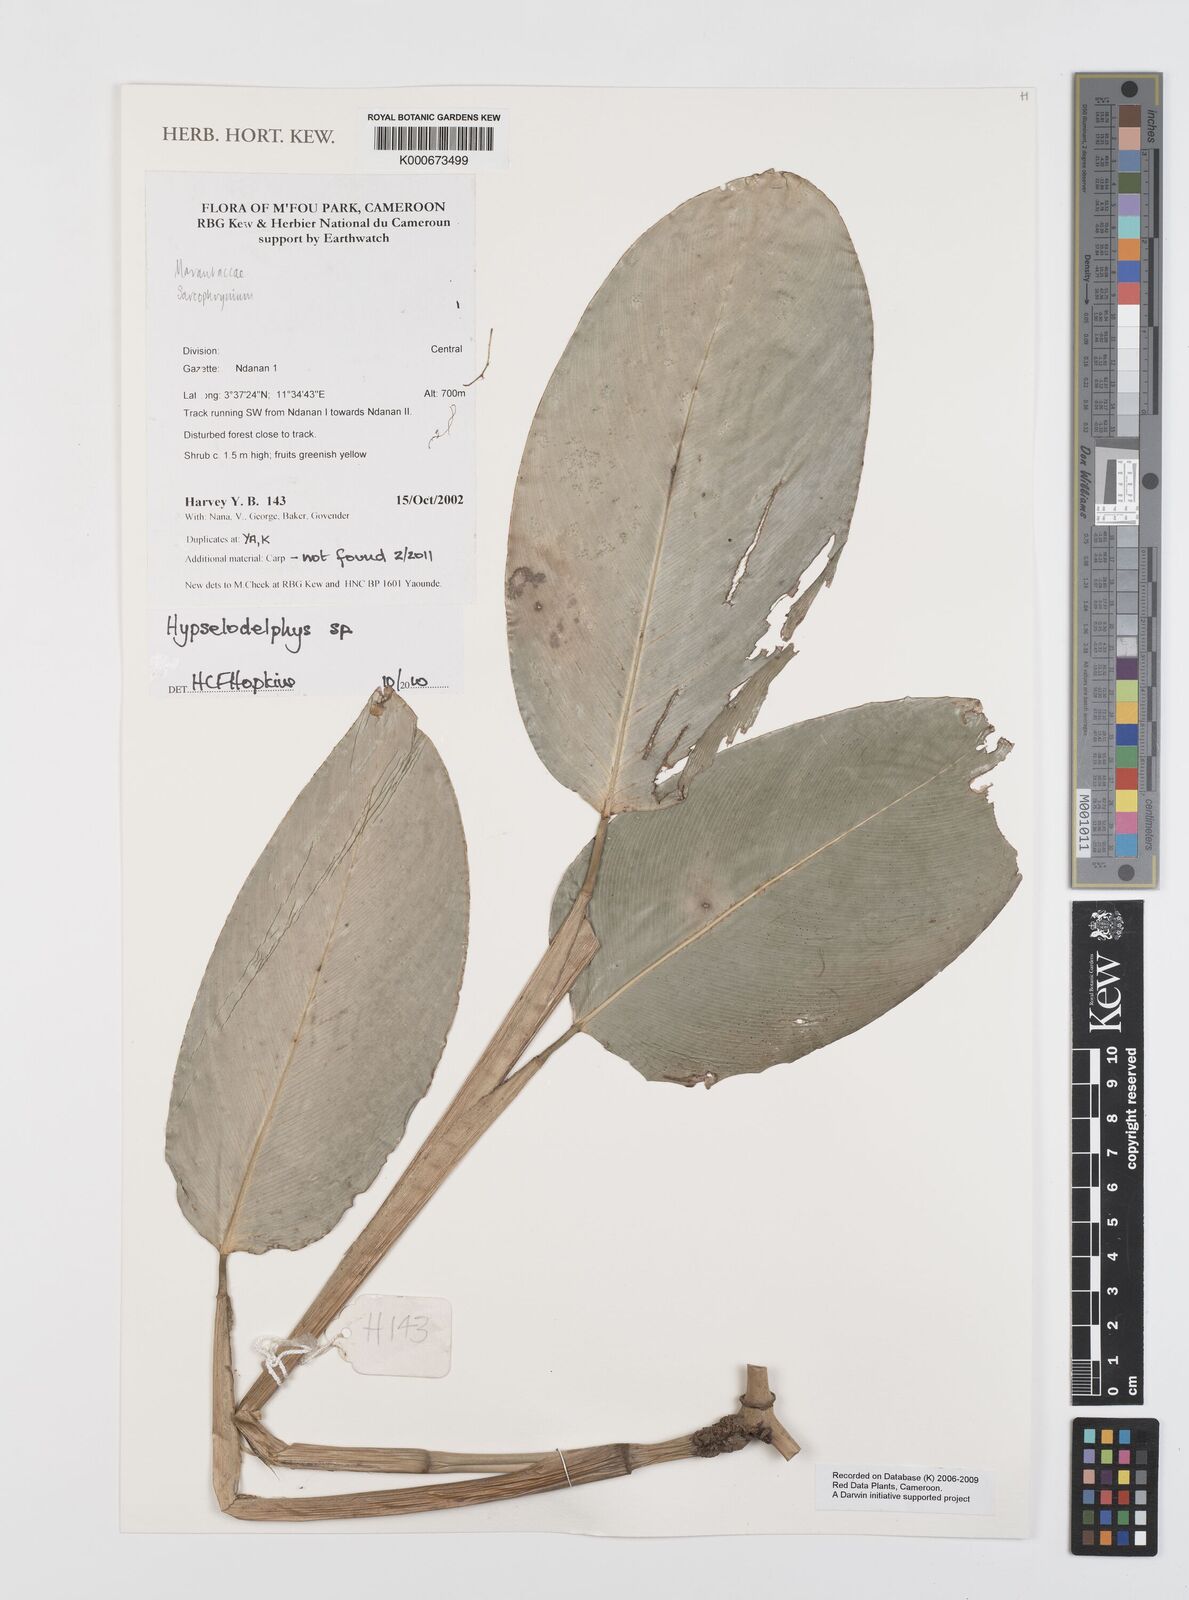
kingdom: Plantae
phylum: Tracheophyta
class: Liliopsida
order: Zingiberales
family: Marantaceae
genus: Hypselodelphys
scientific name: Hypselodelphys
